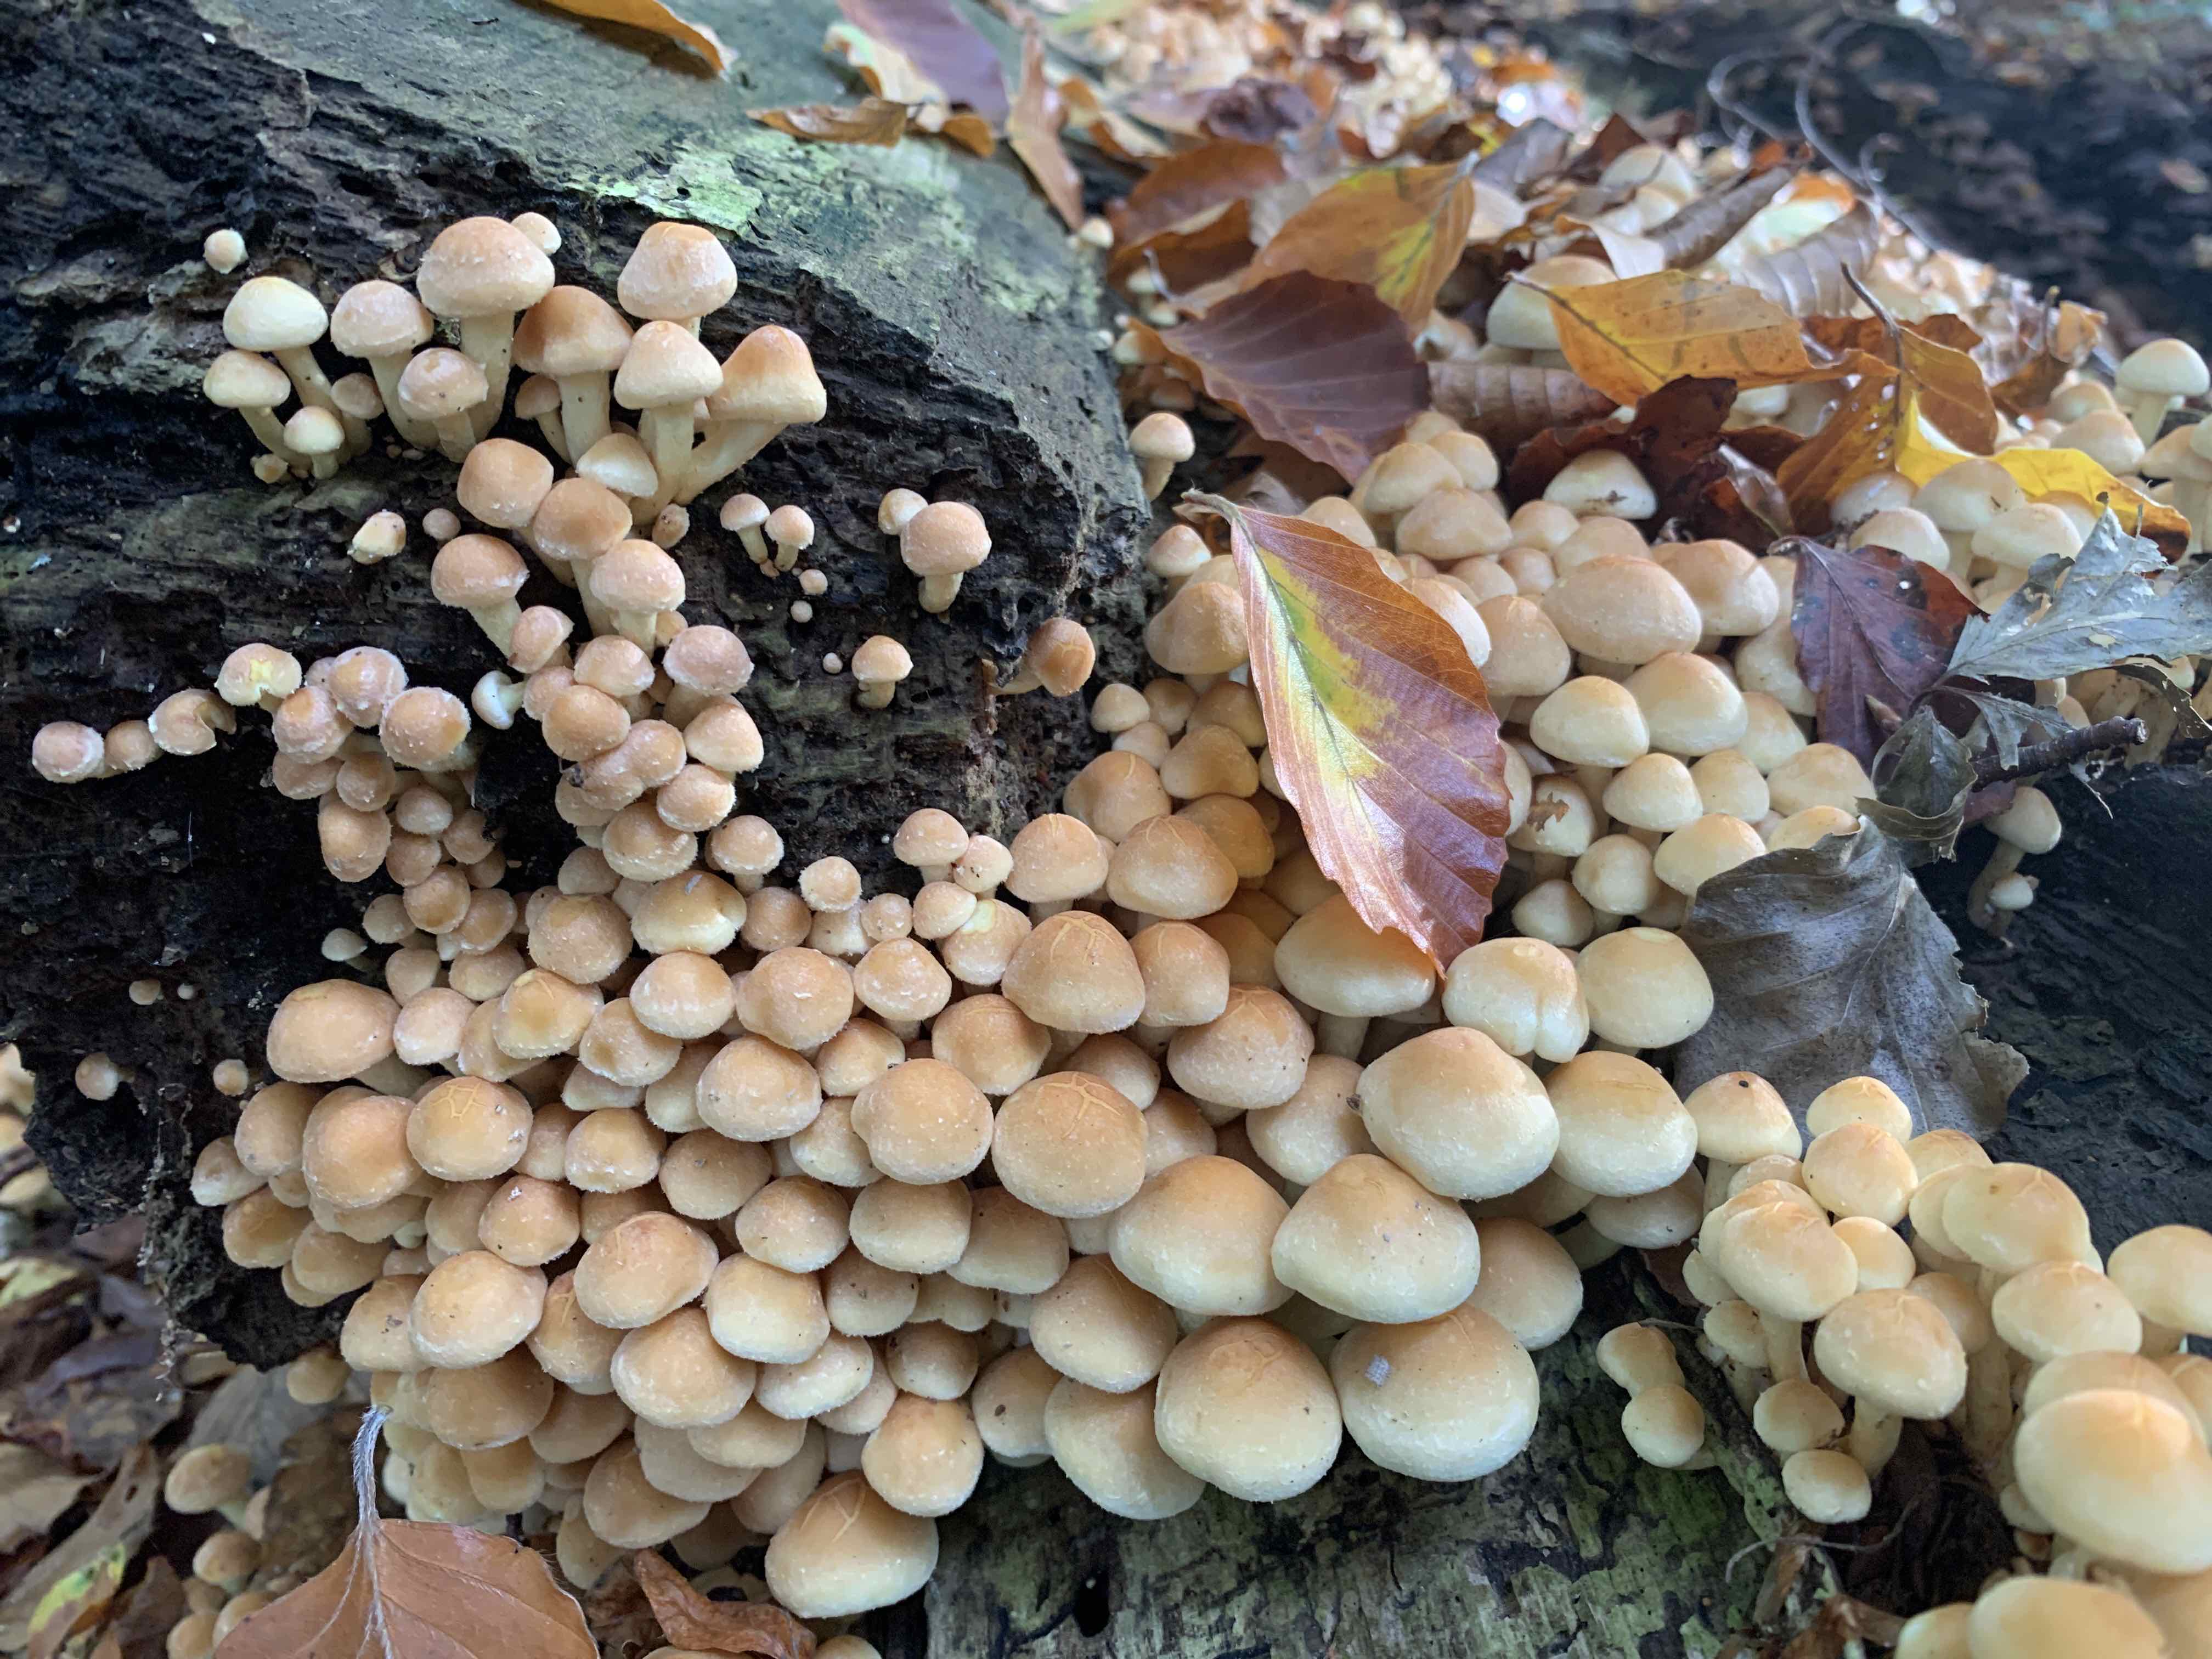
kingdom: Fungi
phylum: Basidiomycota
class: Agaricomycetes
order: Agaricales
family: Strophariaceae
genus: Hypholoma
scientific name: Hypholoma fasciculare
